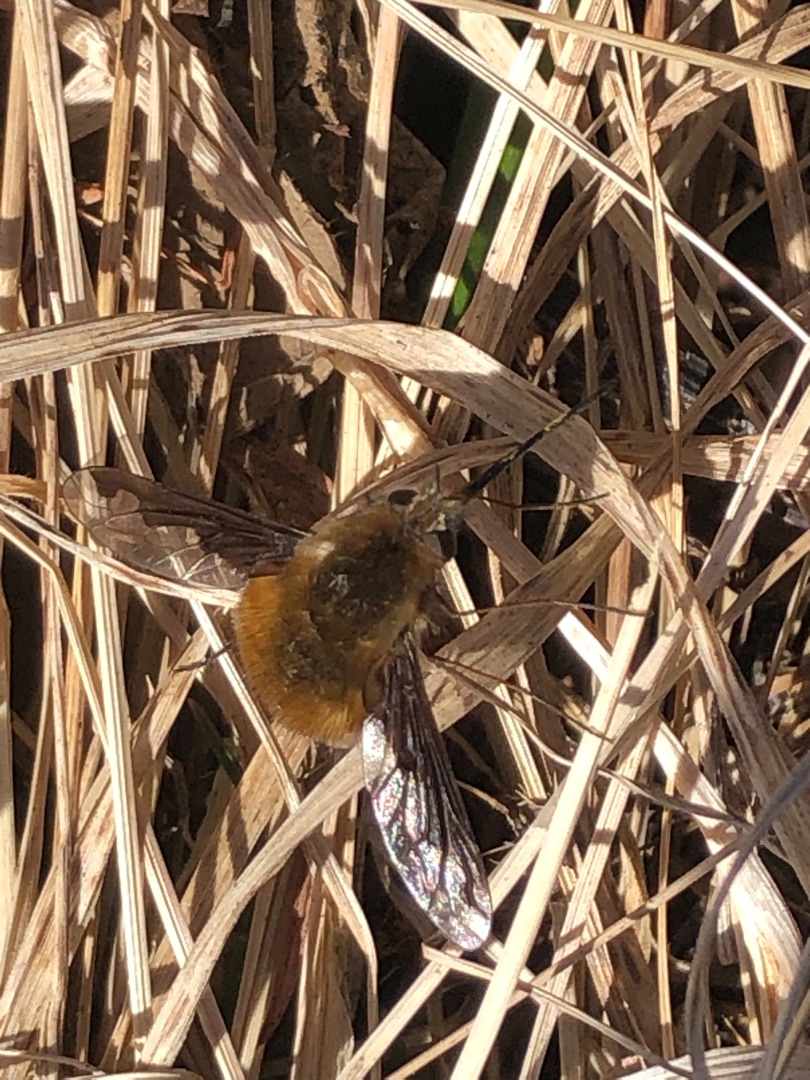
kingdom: Animalia
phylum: Arthropoda
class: Insecta
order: Diptera
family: Bombyliidae
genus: Bombylius
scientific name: Bombylius major
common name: Stor humleflue
